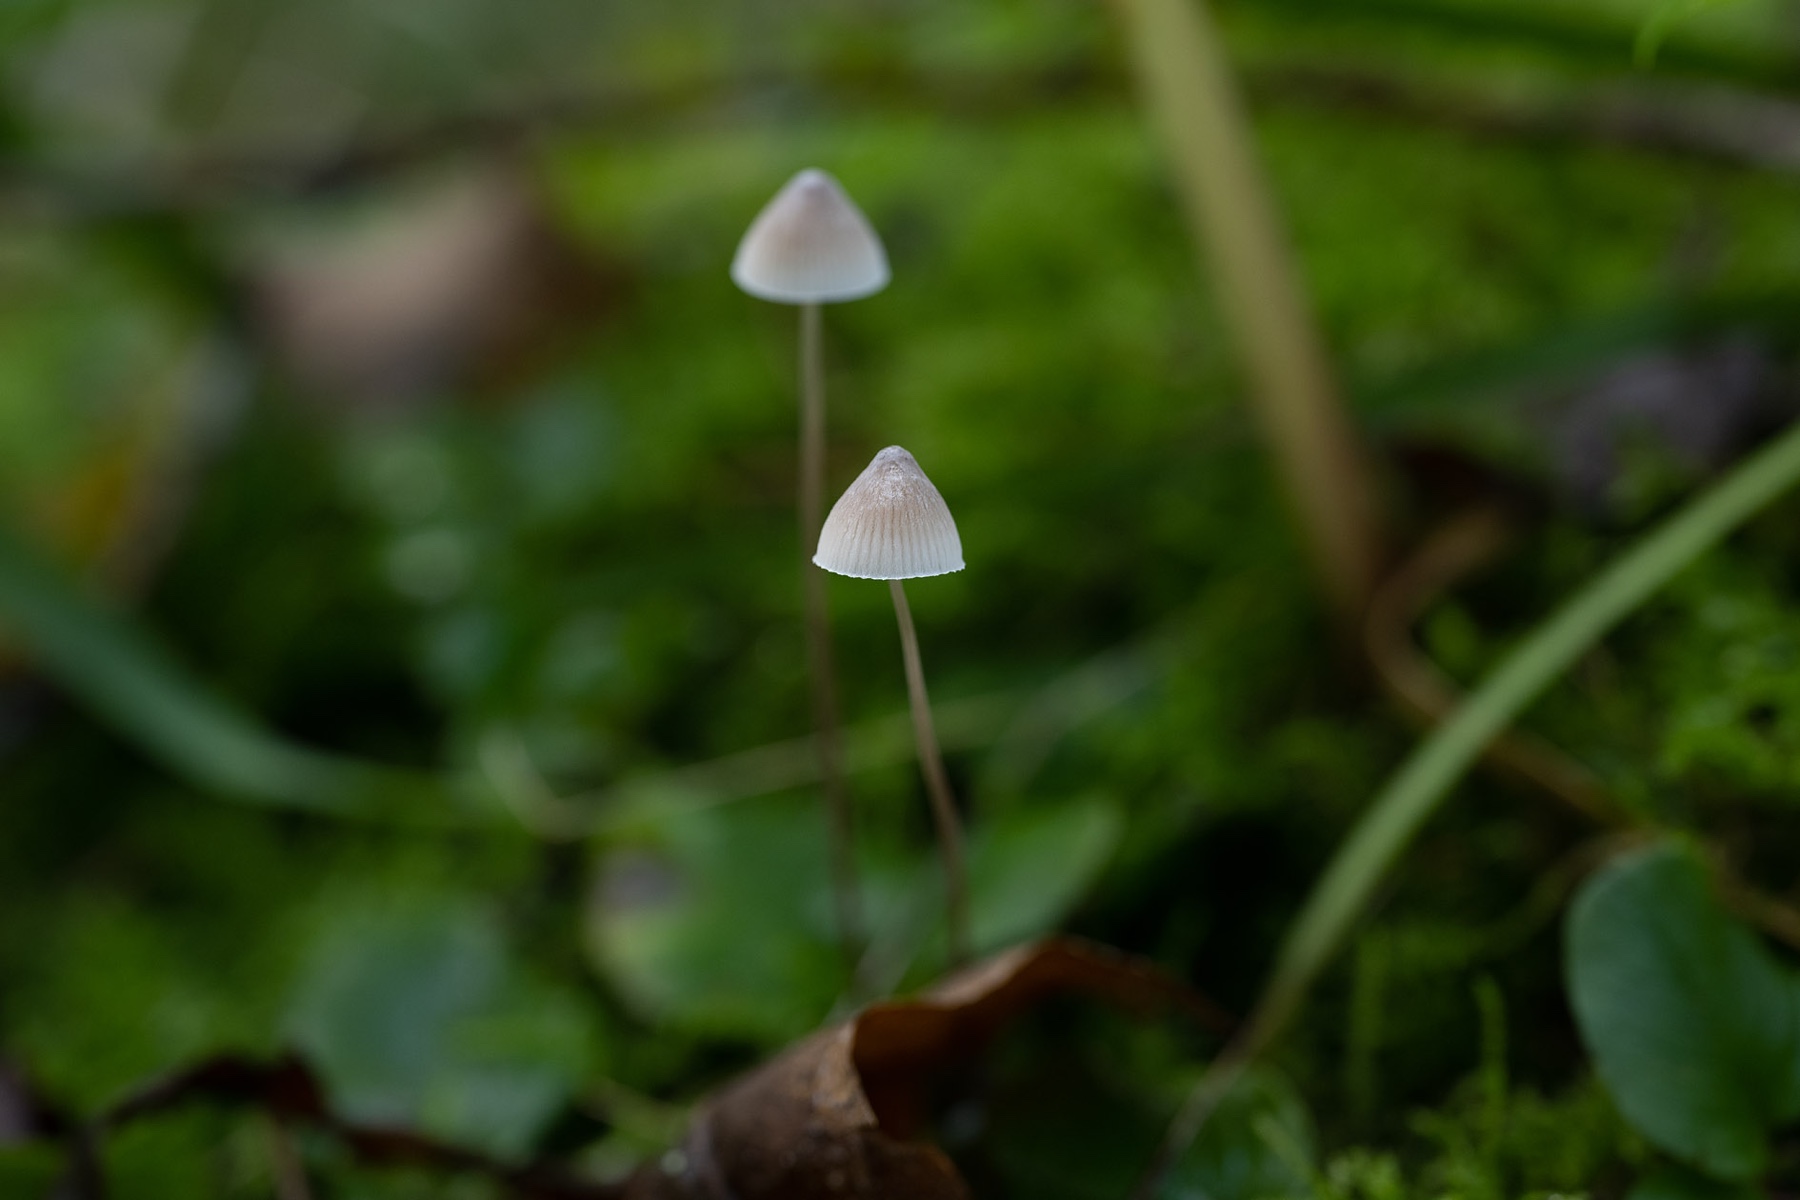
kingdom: Fungi
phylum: Basidiomycota
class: Agaricomycetes
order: Agaricales
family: Mycenaceae
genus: Mycena
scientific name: Mycena filopes
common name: jod-huesvamp
